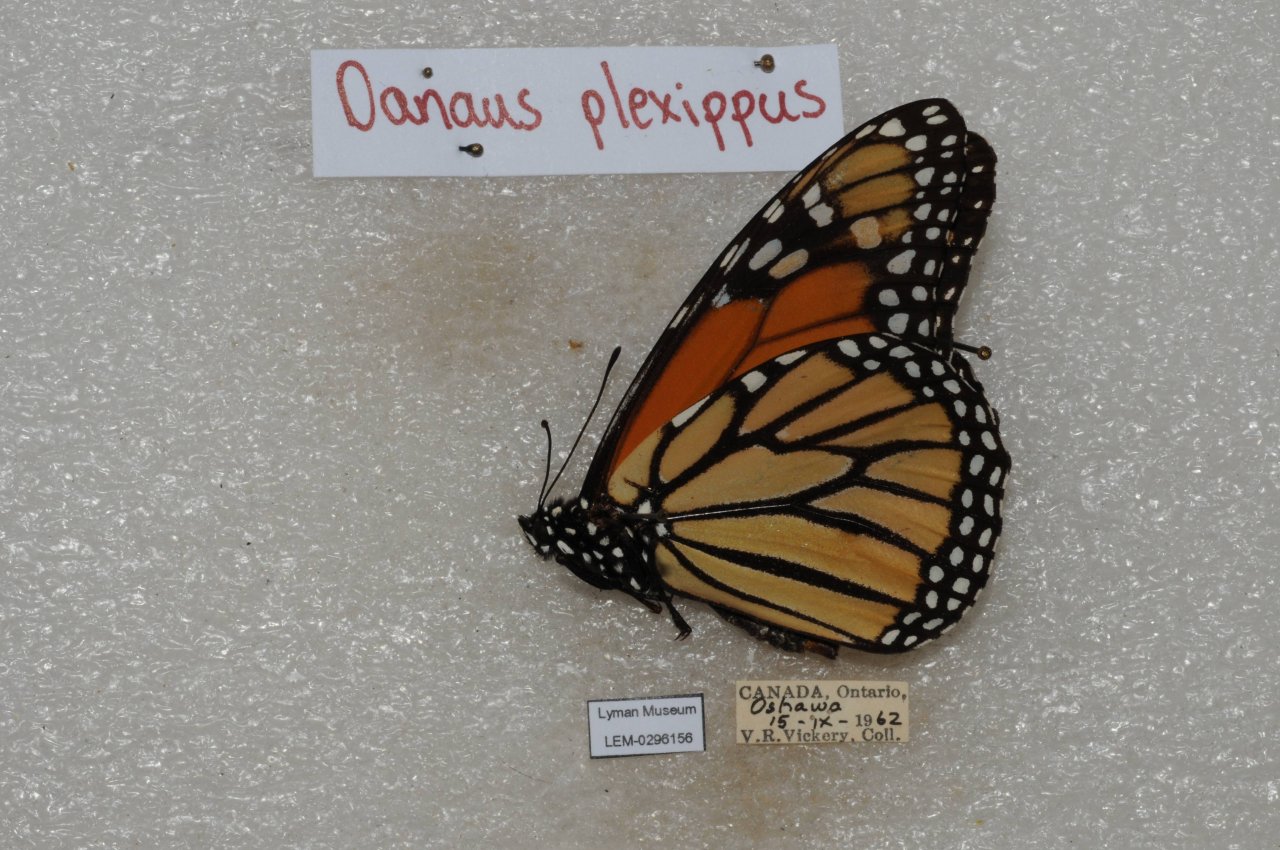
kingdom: Animalia
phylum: Arthropoda
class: Insecta
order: Lepidoptera
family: Nymphalidae
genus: Danaus
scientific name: Danaus plexippus
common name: Monarch
